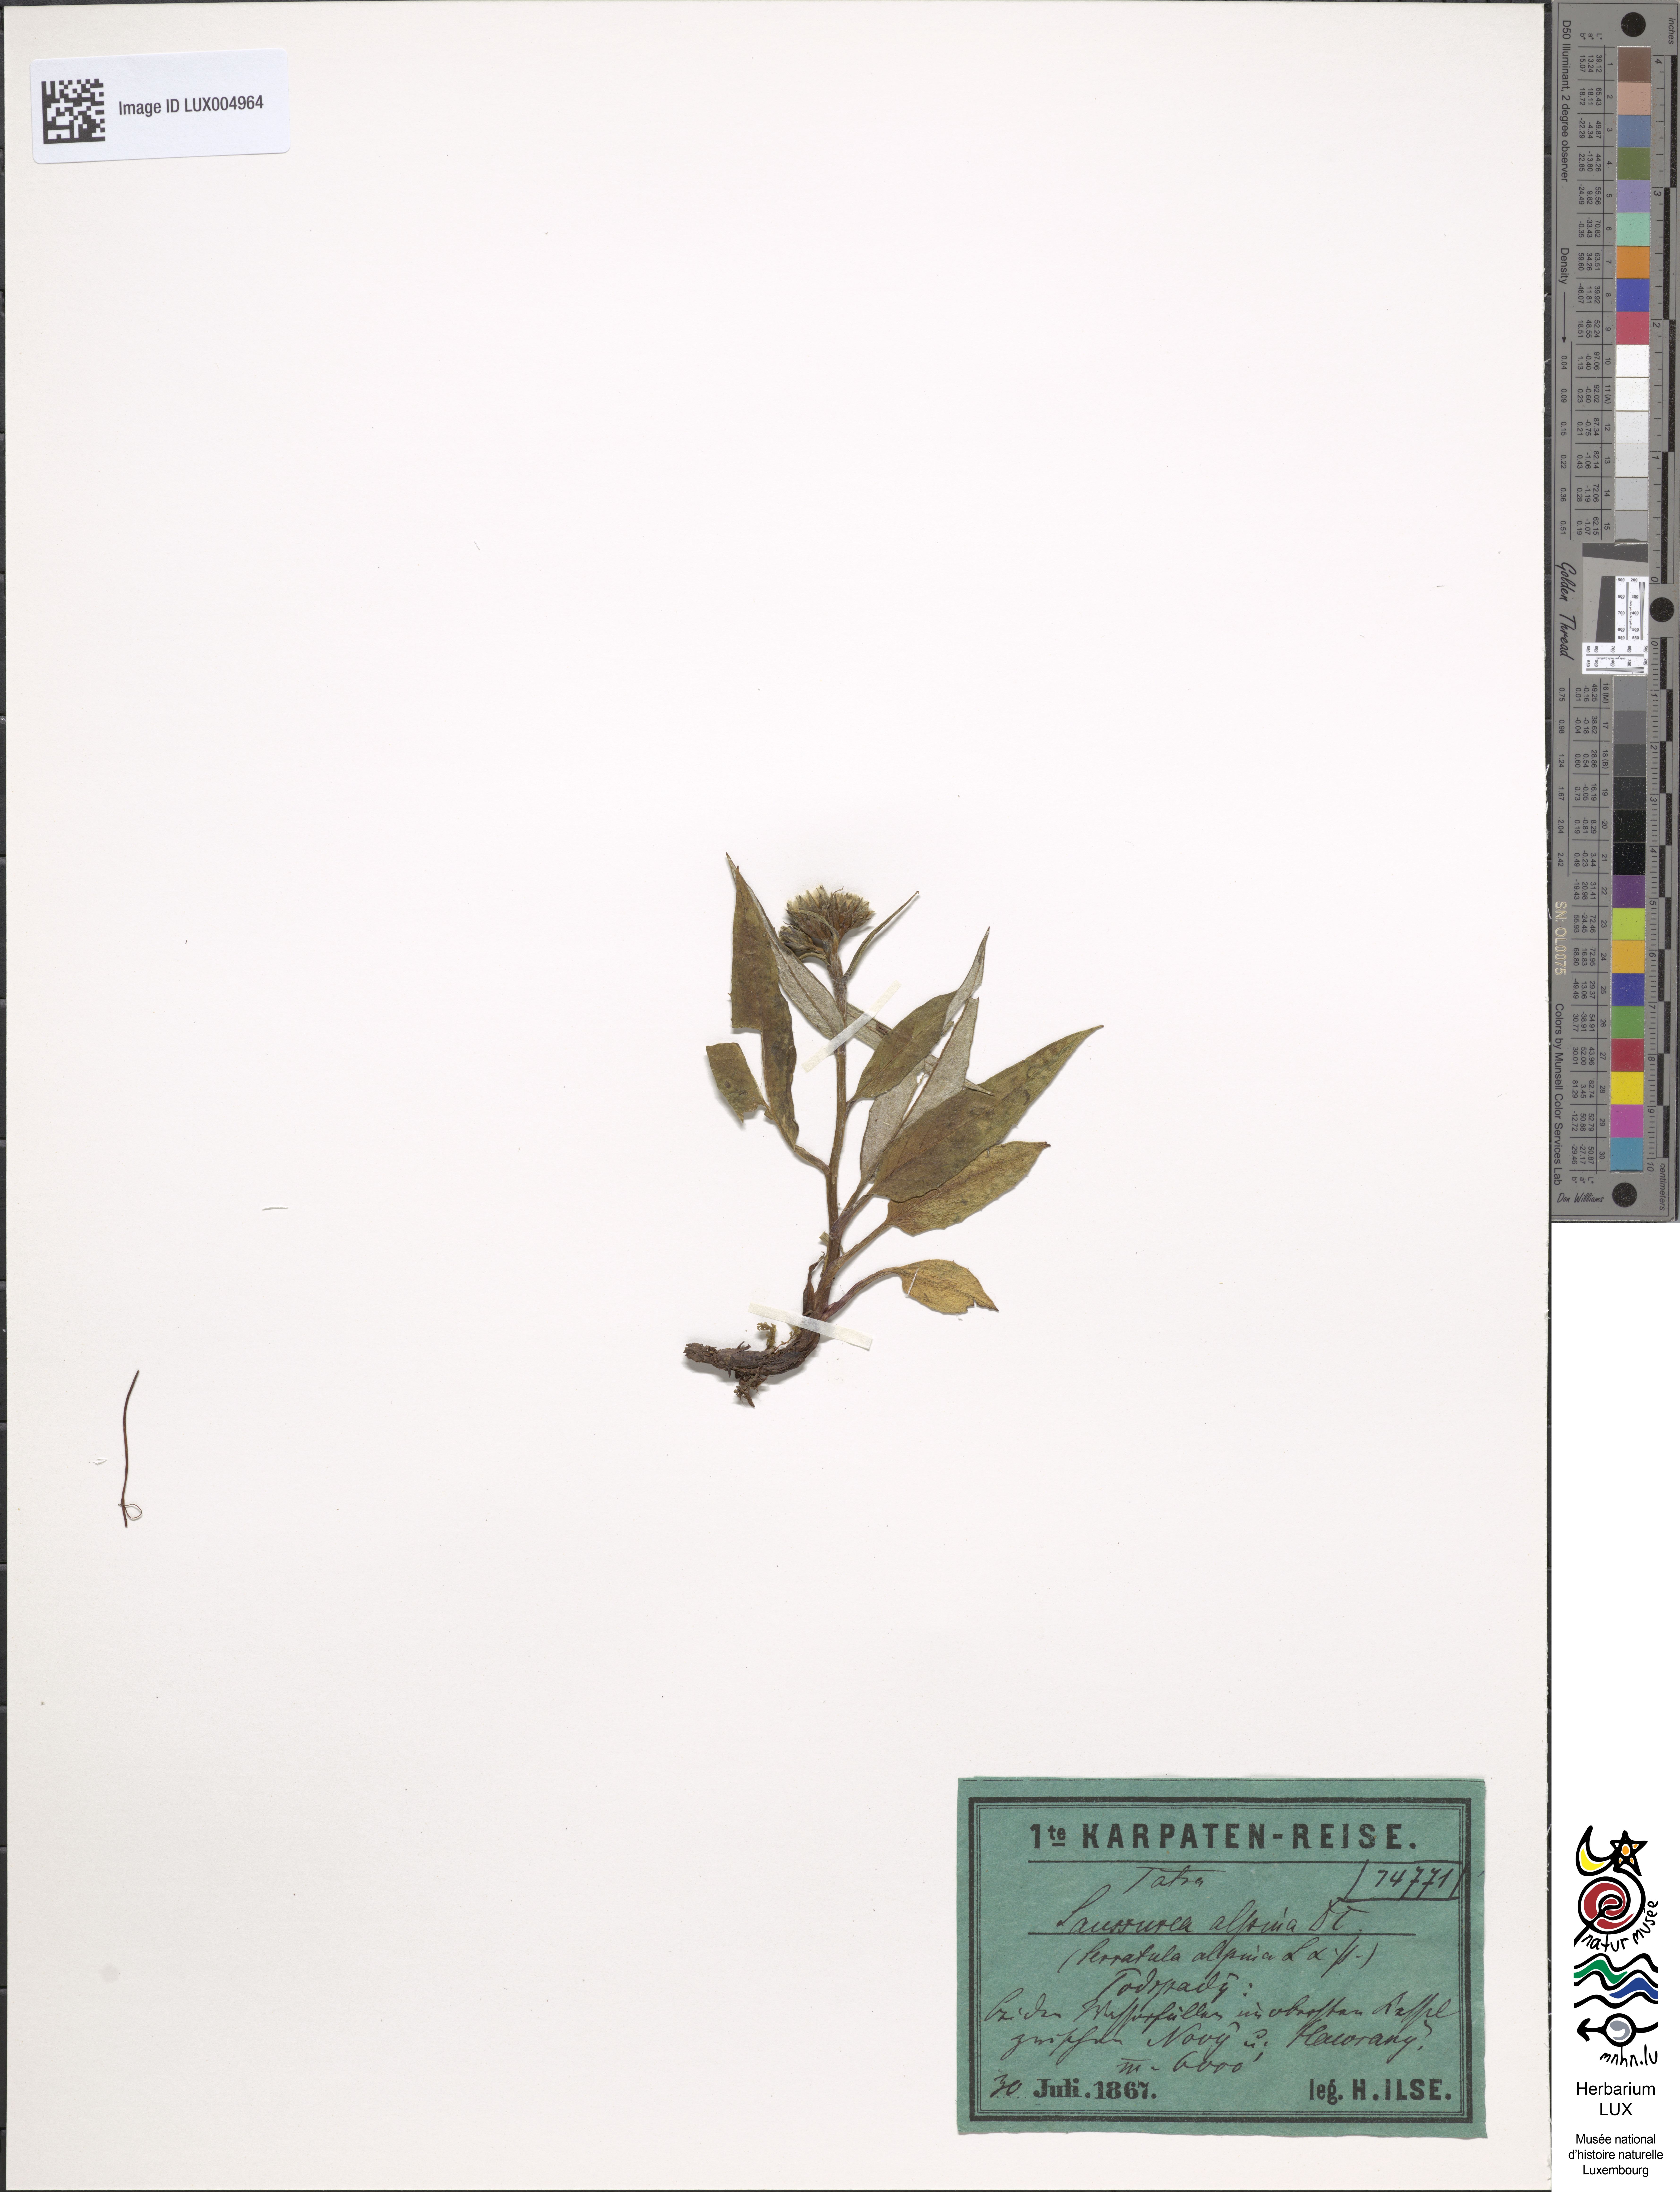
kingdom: Plantae
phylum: Tracheophyta
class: Magnoliopsida
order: Asterales
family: Asteraceae
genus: Saussurea
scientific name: Saussurea alpina
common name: Alpine saw-wort
